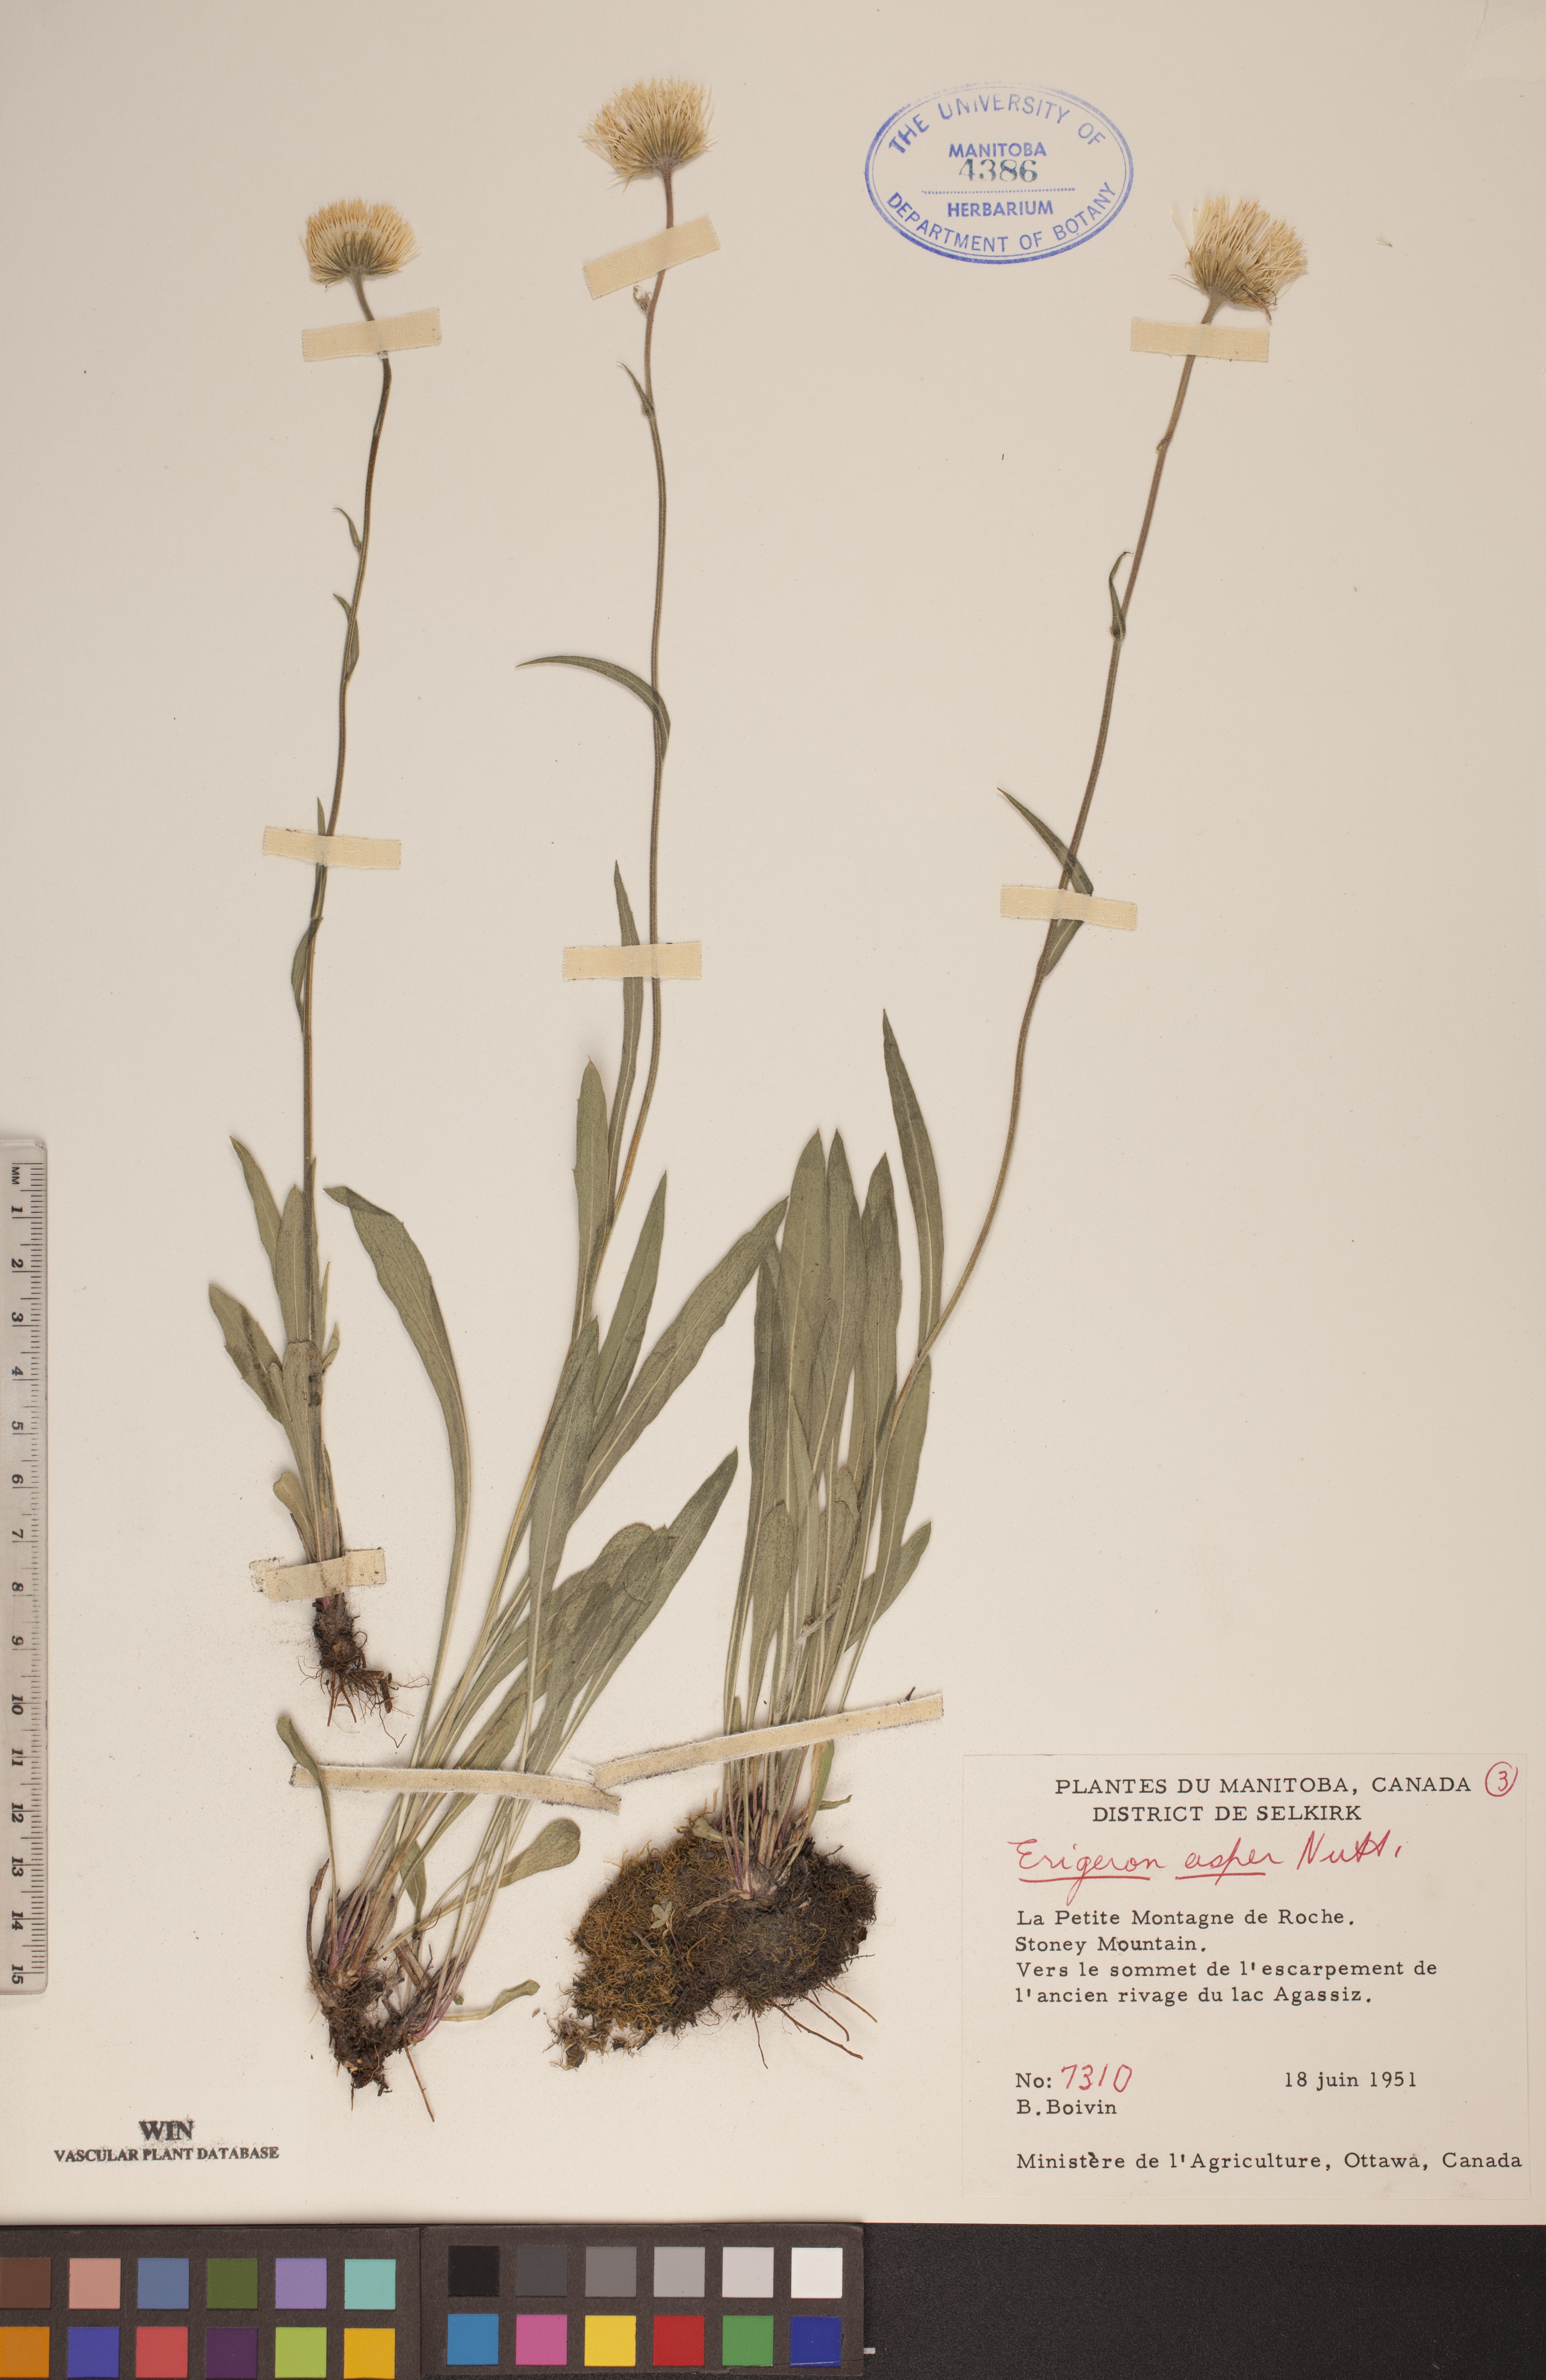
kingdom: Plantae
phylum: Tracheophyta
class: Magnoliopsida
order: Asterales
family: Asteraceae
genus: Erigeron
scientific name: Erigeron glabellus
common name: Smooth fleabane
